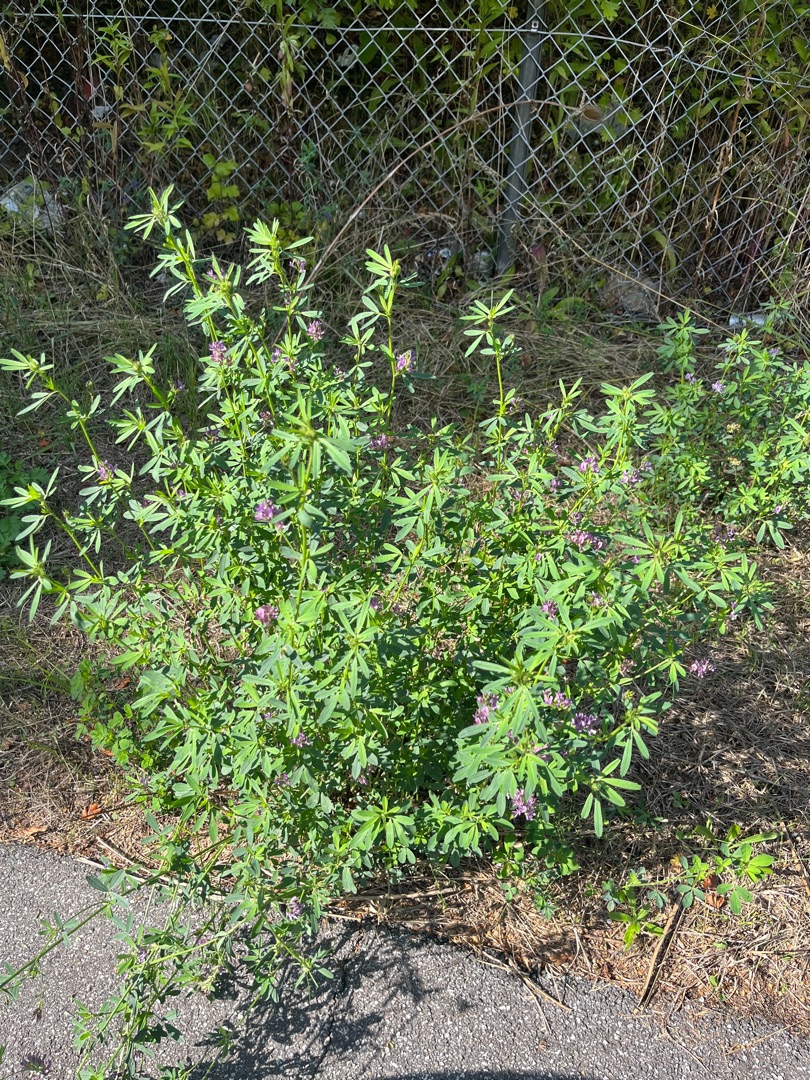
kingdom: Plantae
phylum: Tracheophyta
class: Magnoliopsida
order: Fabales
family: Fabaceae
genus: Medicago
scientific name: Medicago sativa
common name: Lucerne
